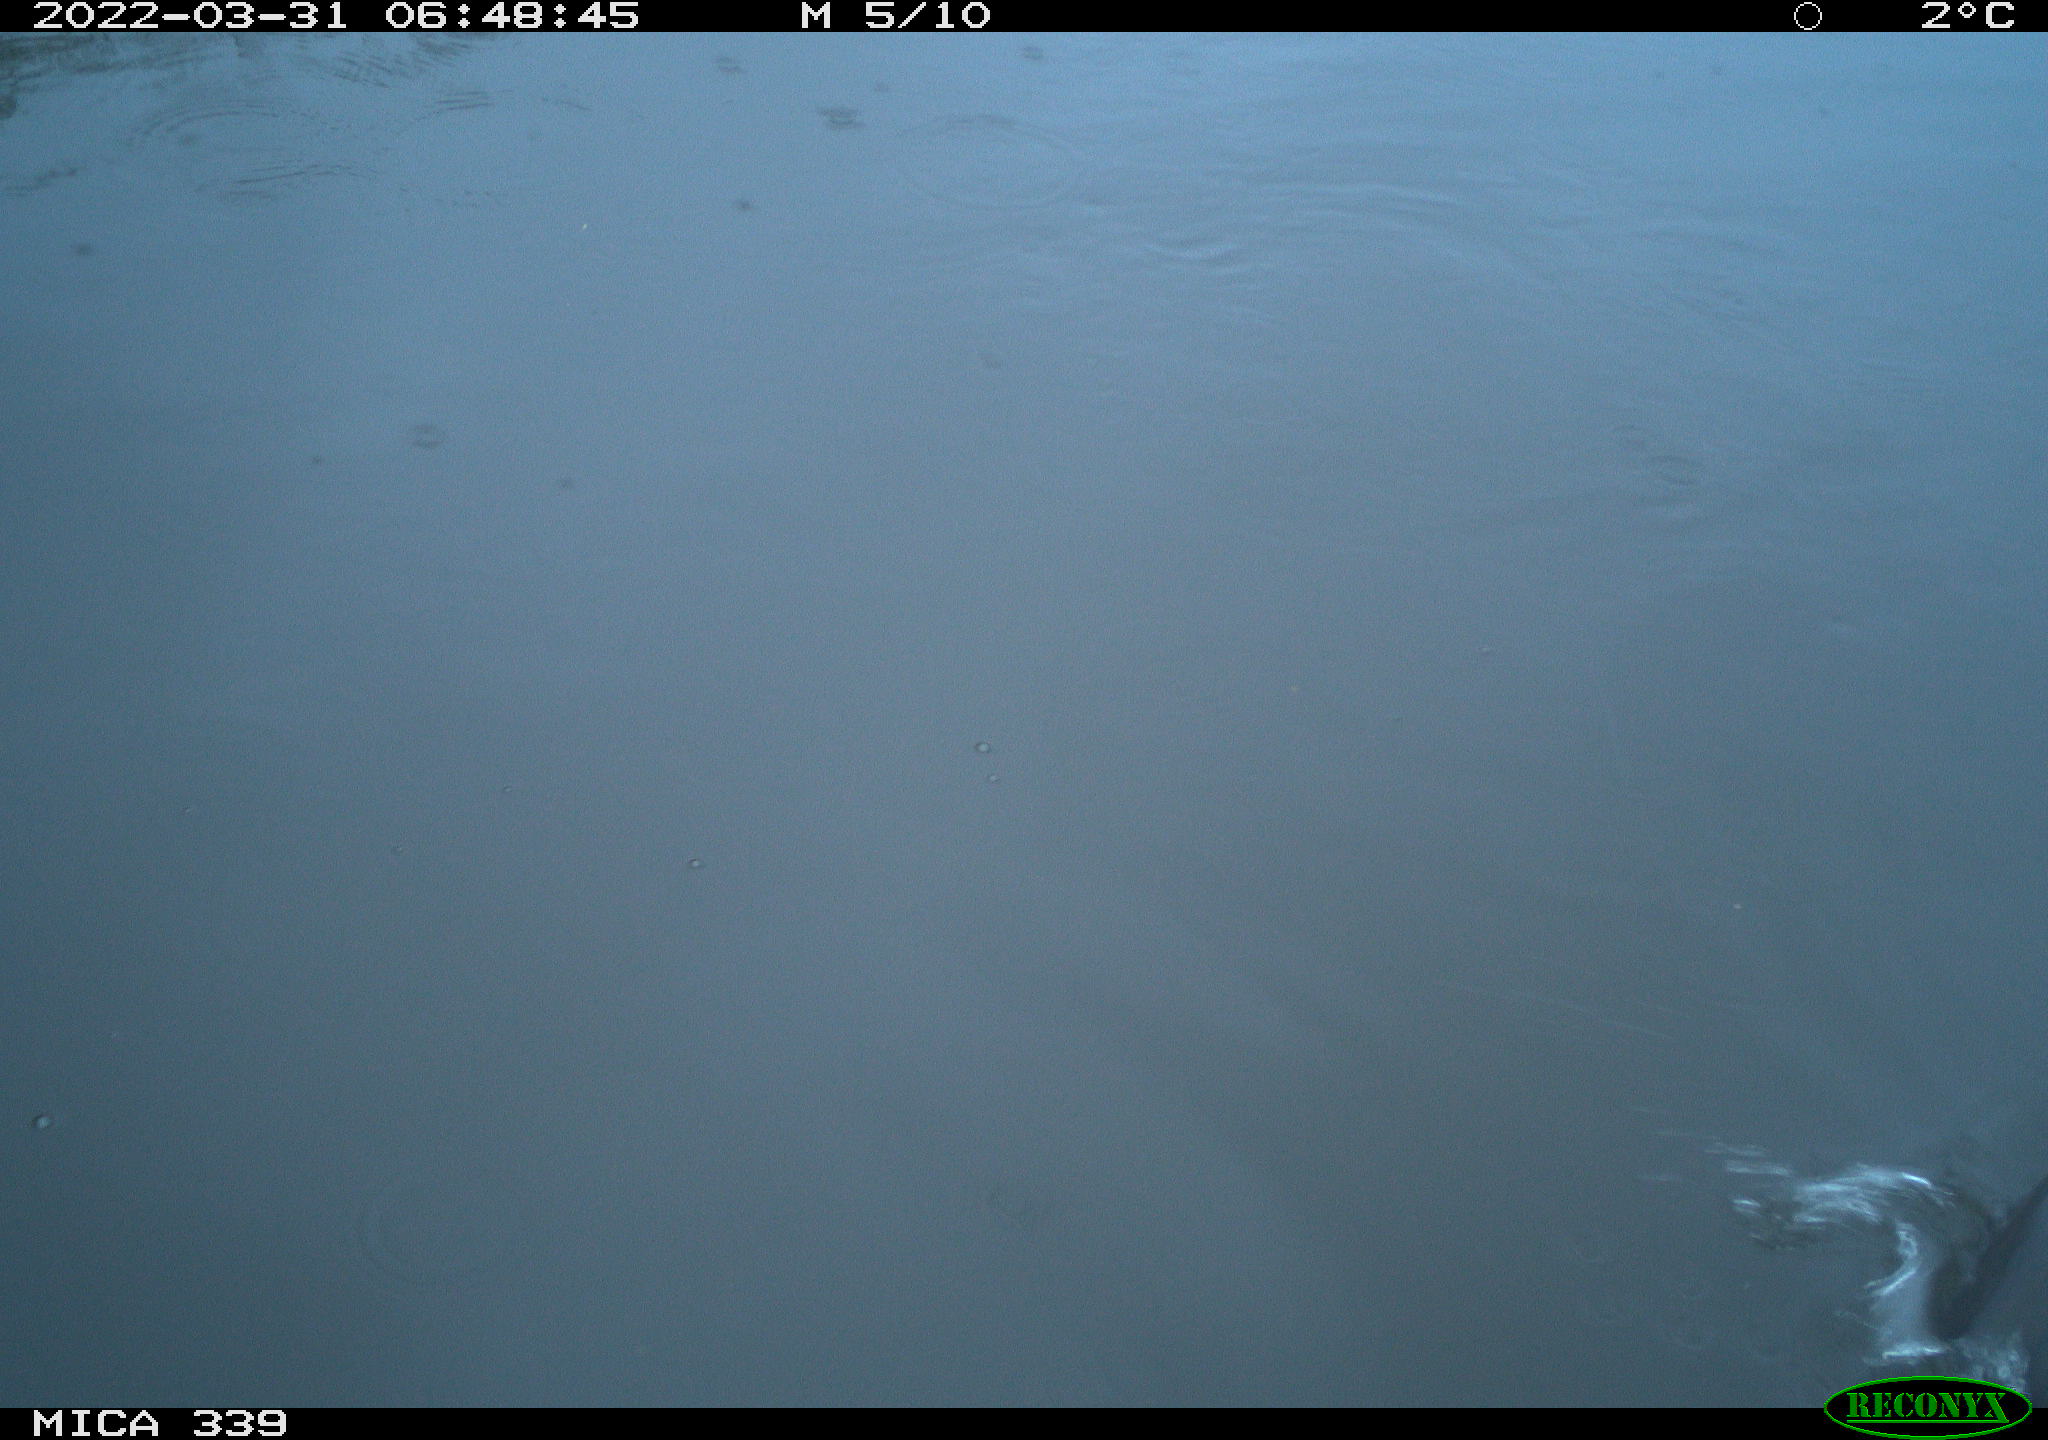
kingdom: Animalia
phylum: Chordata
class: Aves
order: Suliformes
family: Phalacrocoracidae
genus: Phalacrocorax
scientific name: Phalacrocorax carbo
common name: Great cormorant
